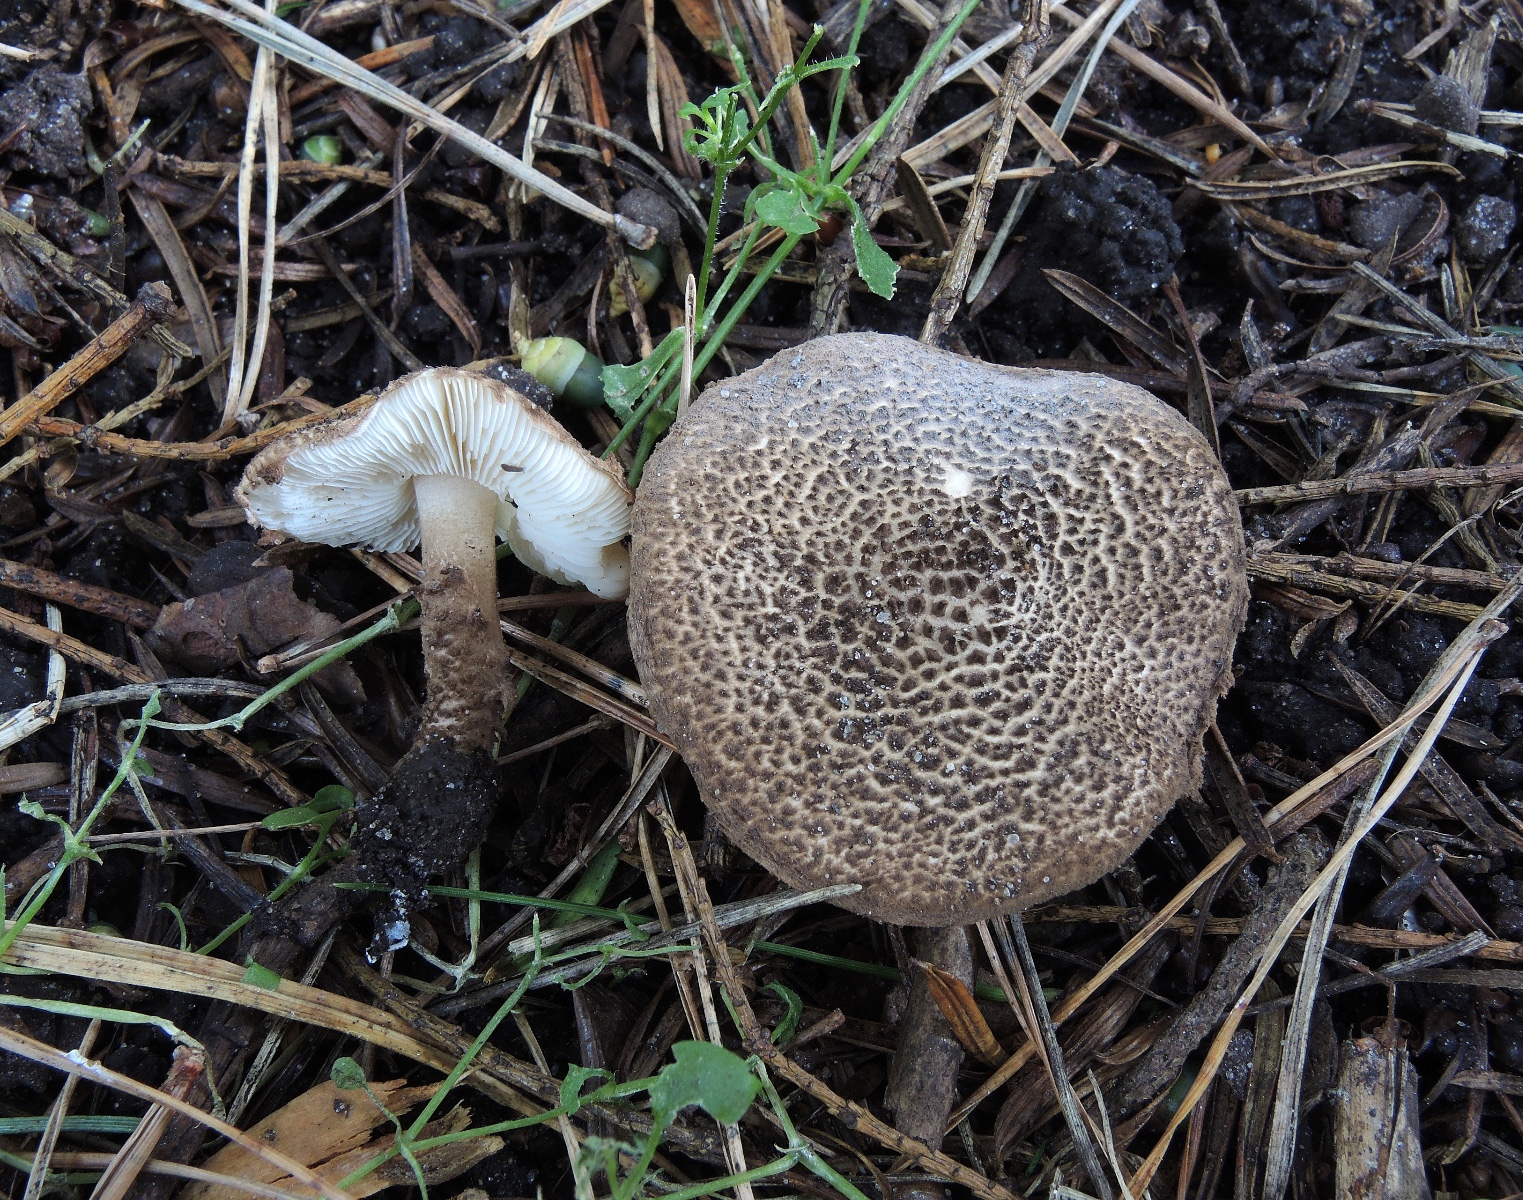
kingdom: Fungi
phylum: Basidiomycota
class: Agaricomycetes
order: Agaricales
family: Agaricaceae
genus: Echinoderma
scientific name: Echinoderma jacobi
